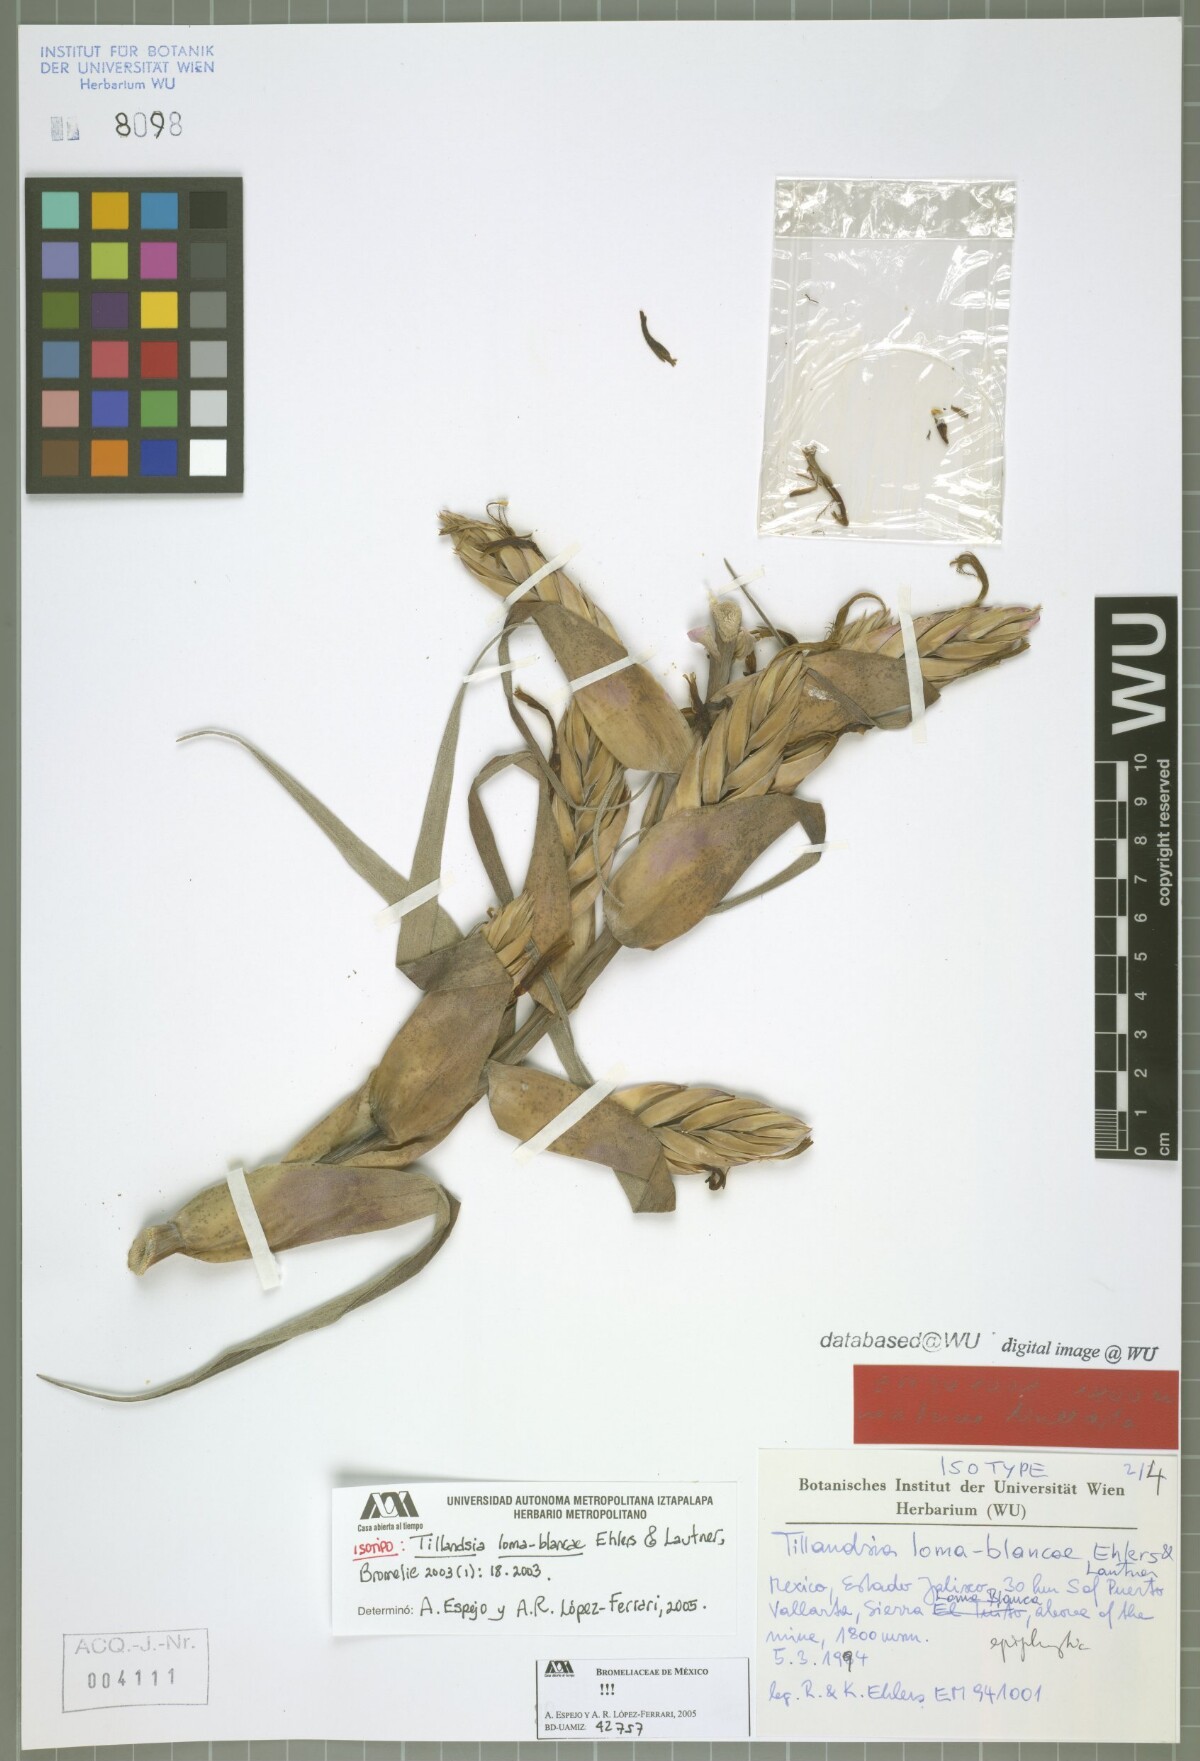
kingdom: Plantae
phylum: Tracheophyta
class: Liliopsida
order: Poales
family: Bromeliaceae
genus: Tillandsia
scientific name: Tillandsia loma-blancae
